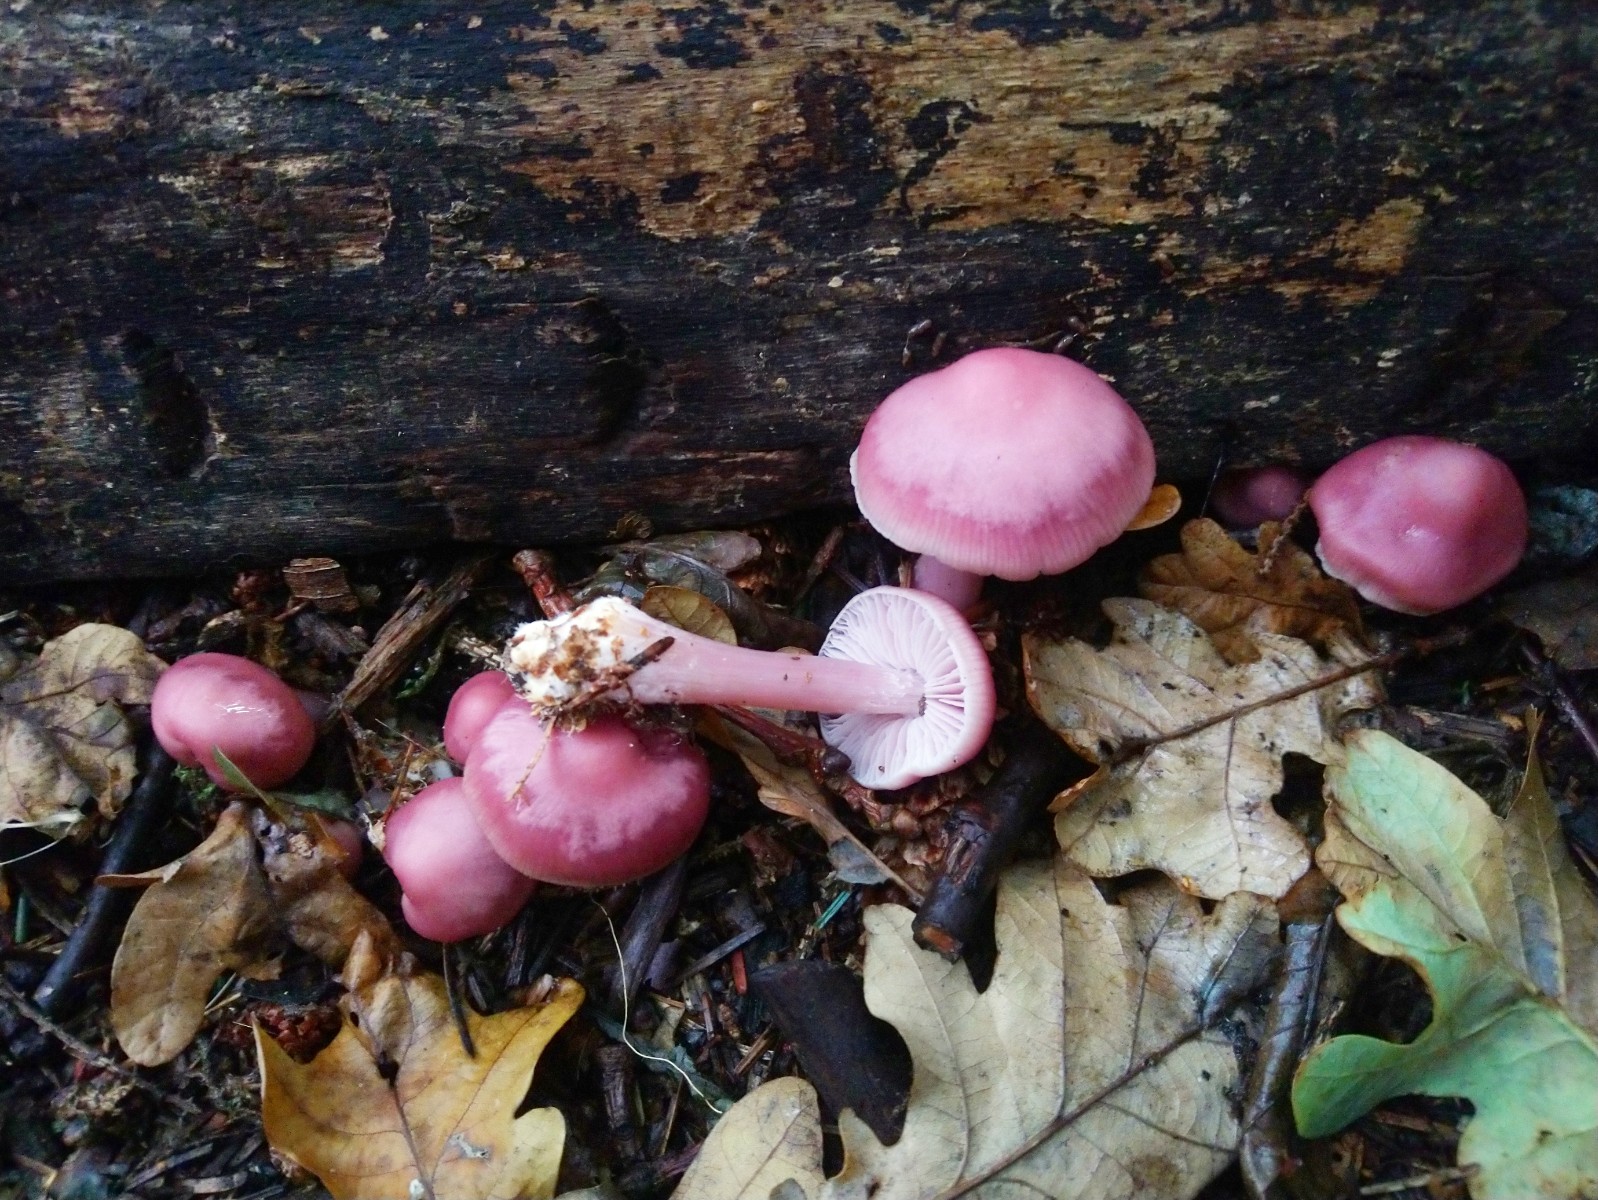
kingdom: Fungi
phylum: Basidiomycota
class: Agaricomycetes
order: Agaricales
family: Mycenaceae
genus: Mycena
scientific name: Mycena rosea
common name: rosa huesvamp
